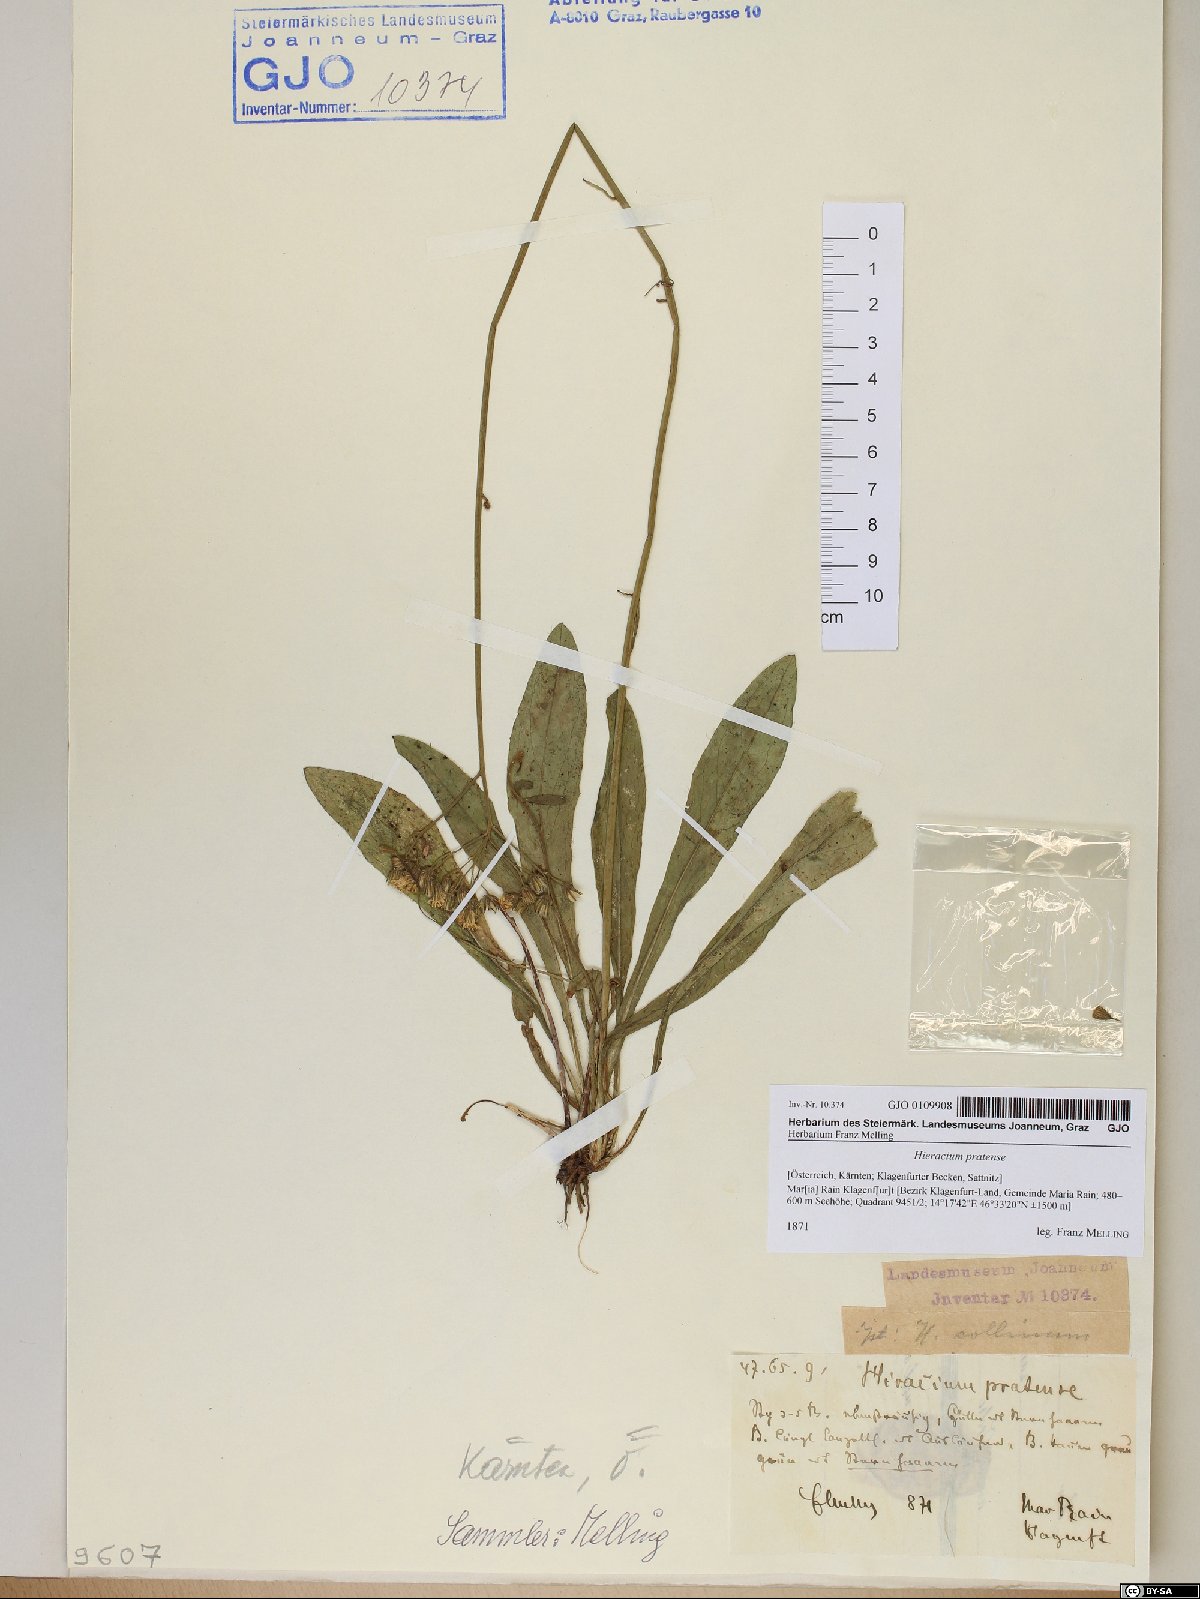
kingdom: Plantae
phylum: Tracheophyta
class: Magnoliopsida
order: Asterales
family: Asteraceae
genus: Pilosella
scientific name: Pilosella caespitosa
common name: Yellow fox-and-cubs
